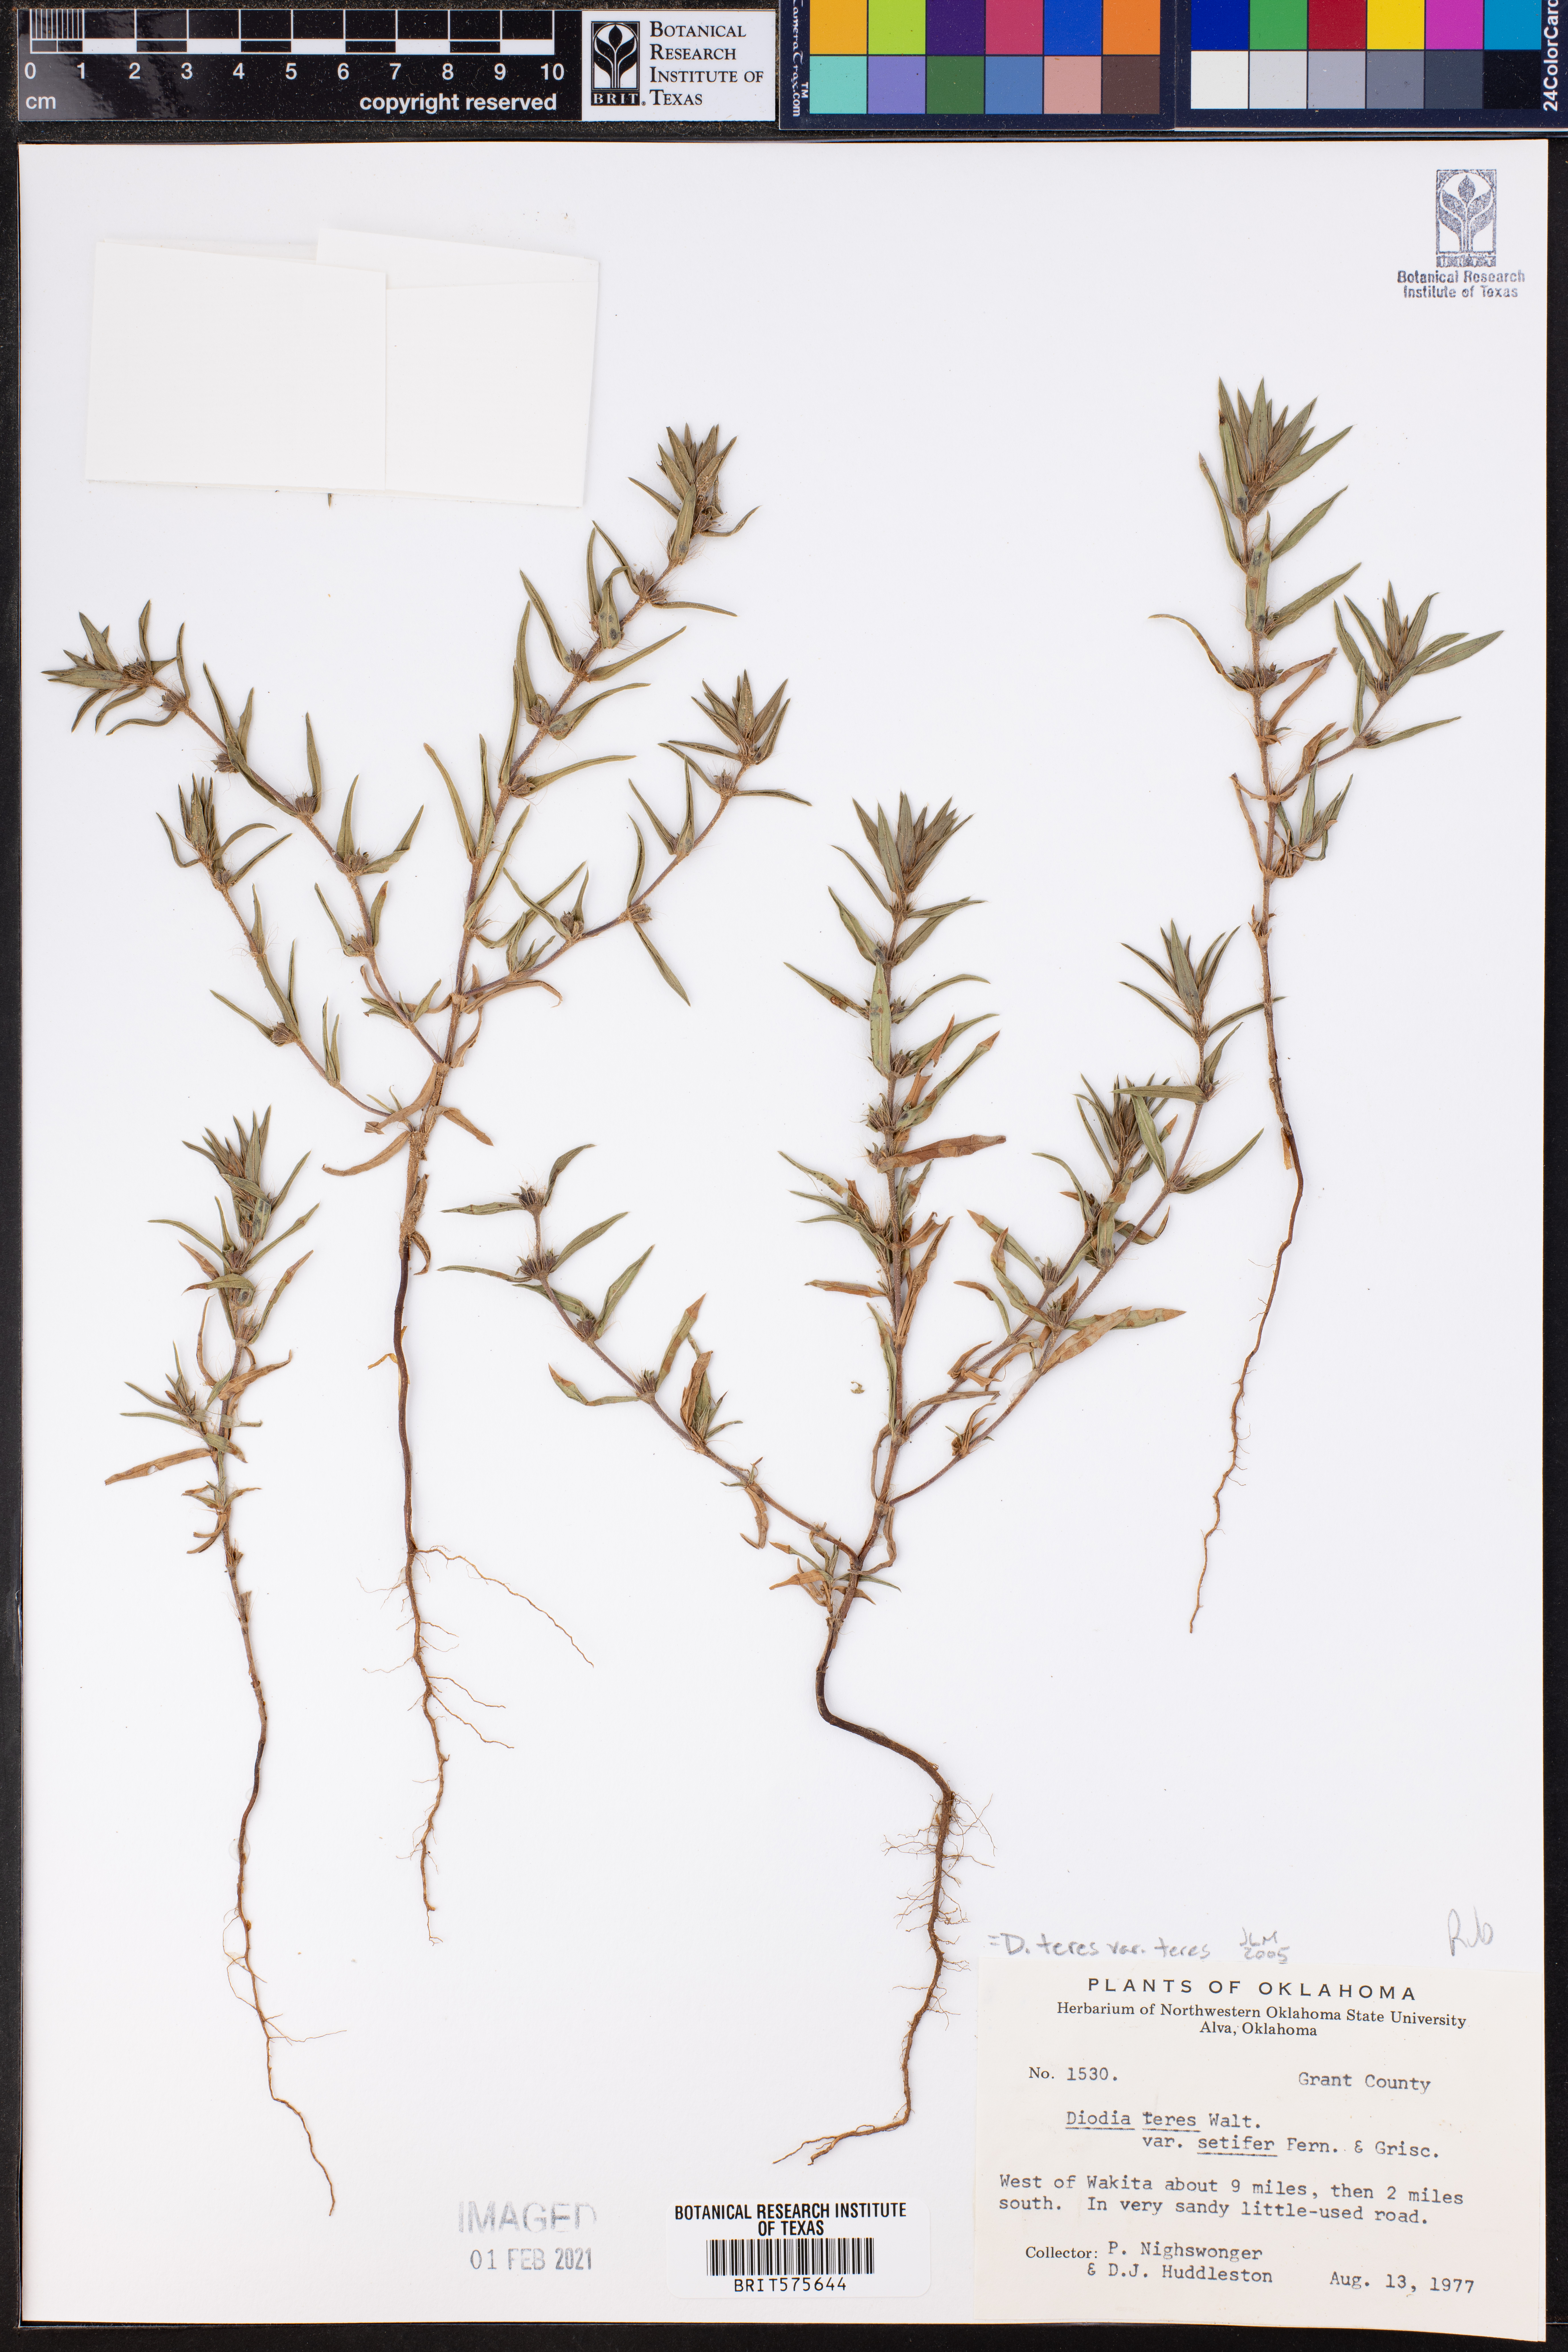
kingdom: Plantae
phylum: Tracheophyta
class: Magnoliopsida
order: Gentianales
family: Rubiaceae
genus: Hexasepalum
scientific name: Hexasepalum teres
